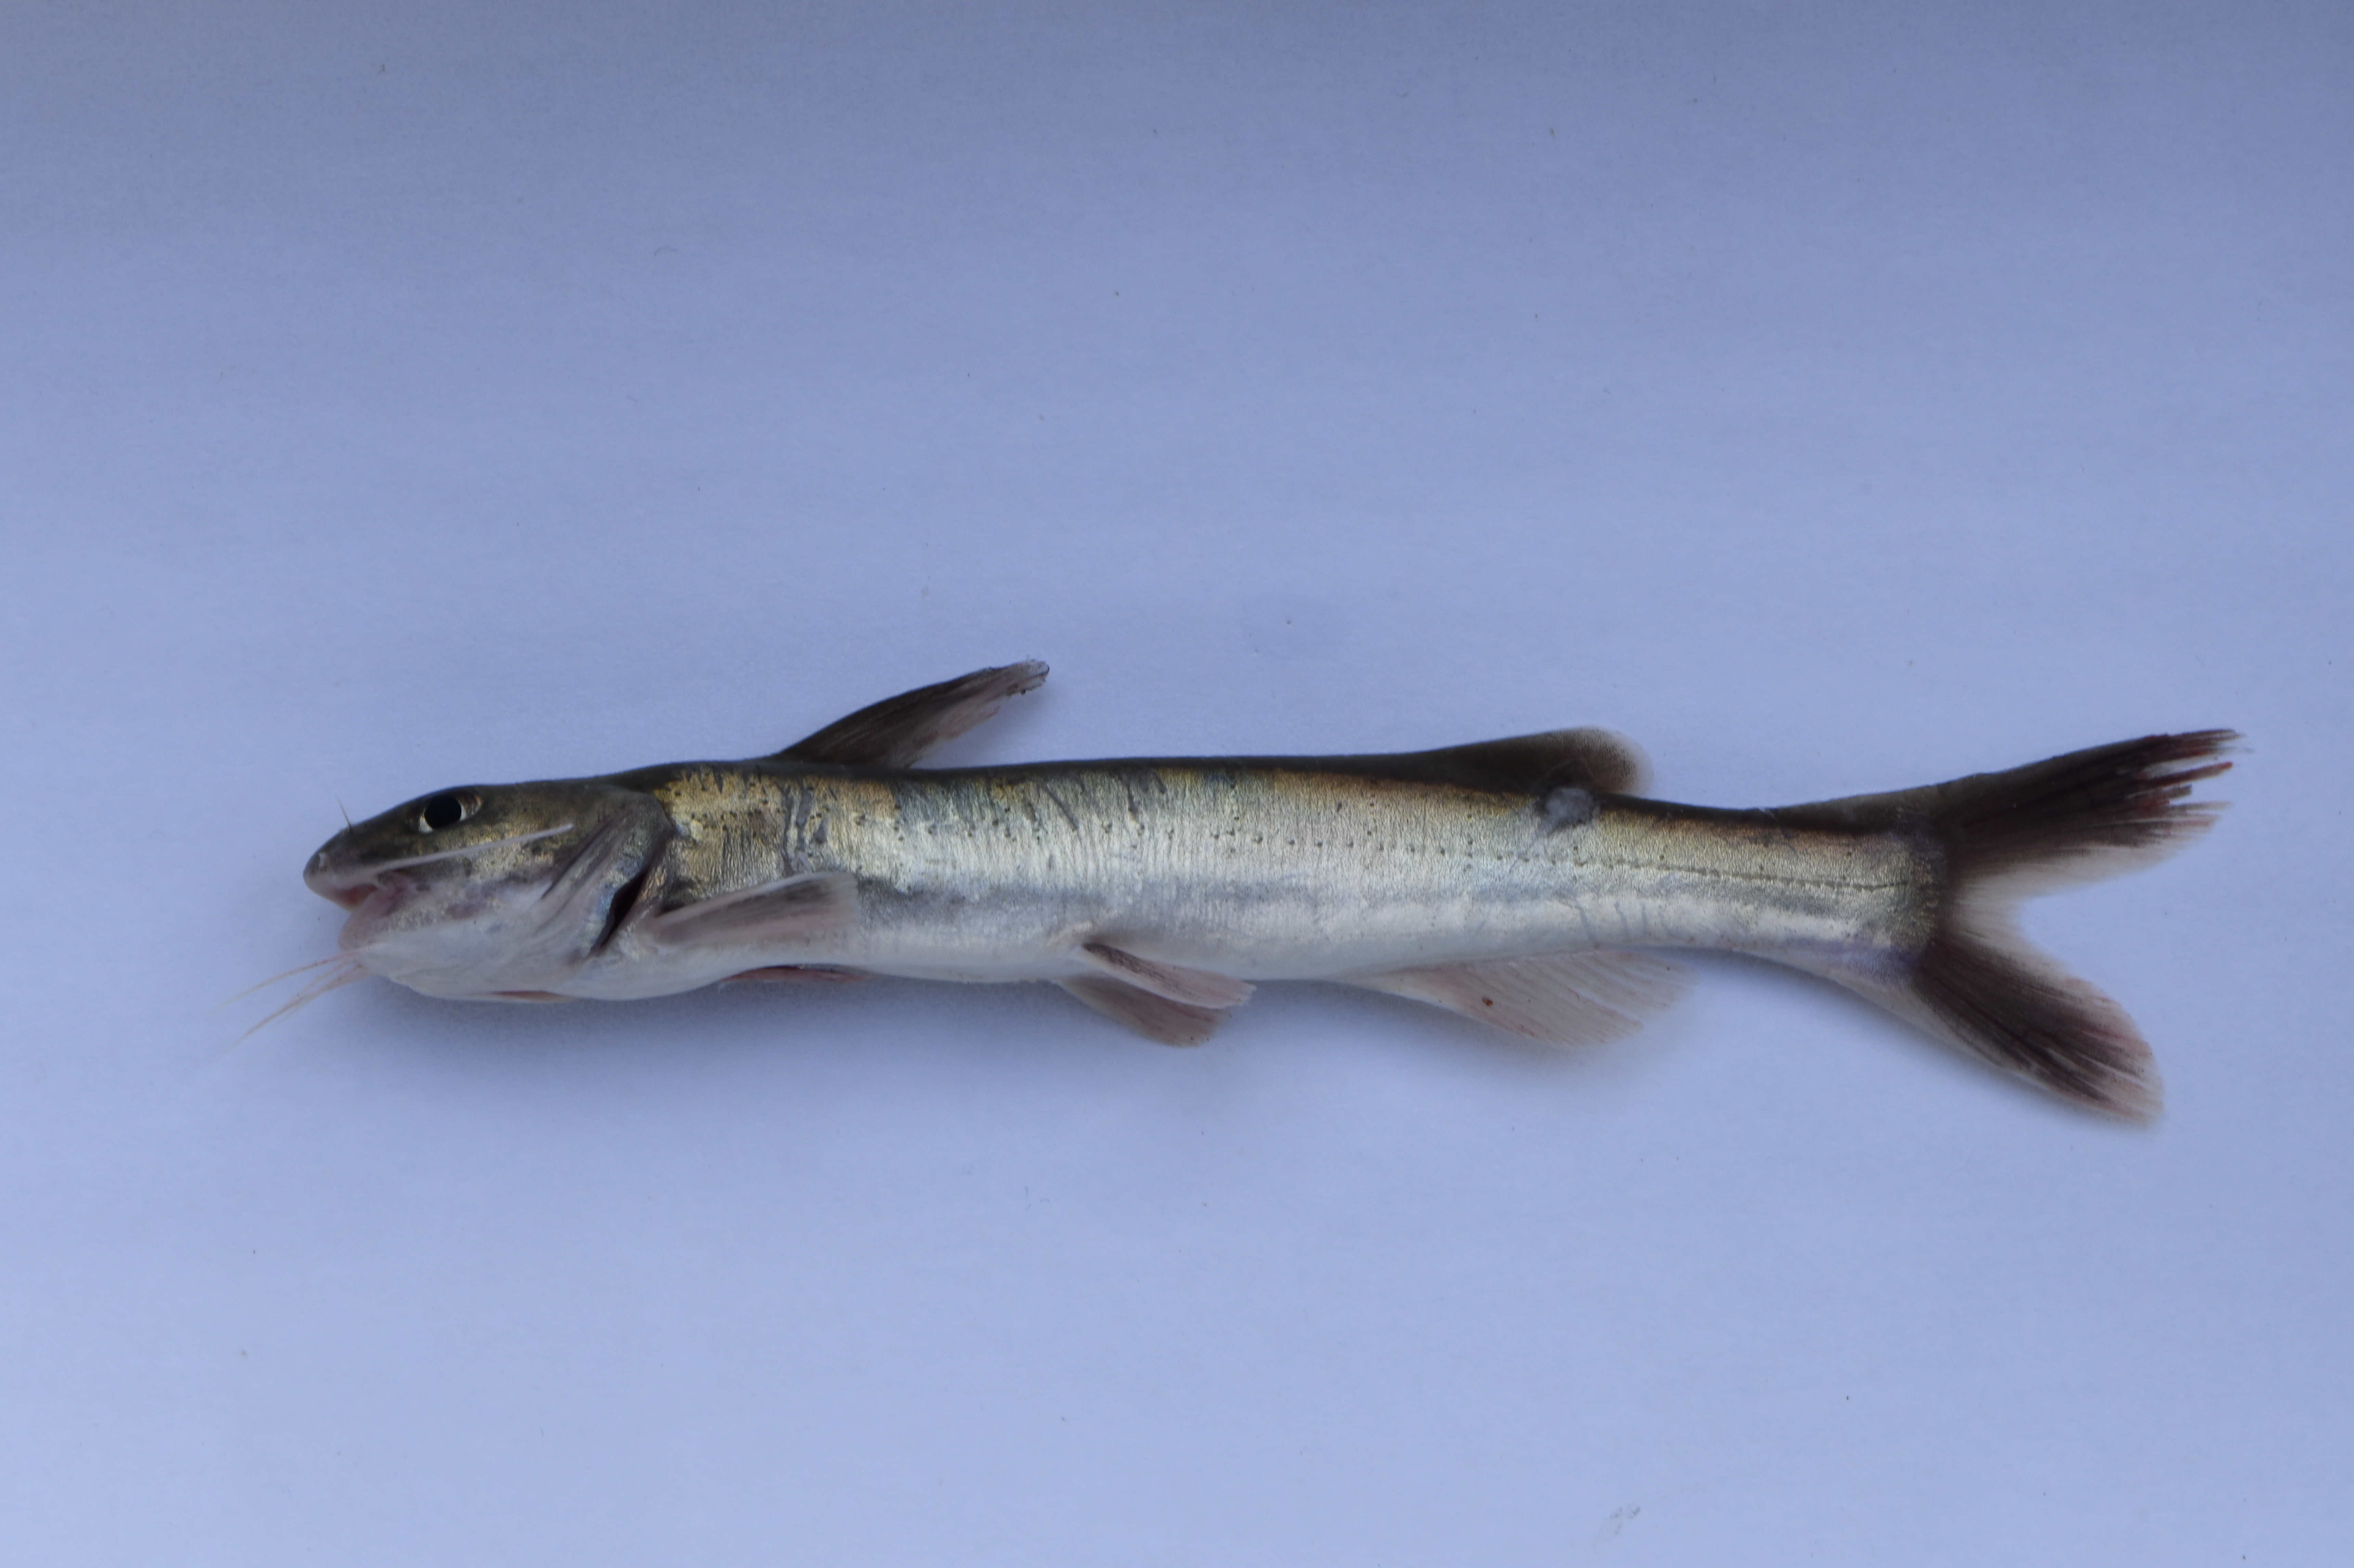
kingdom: Animalia
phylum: Chordata
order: Siluriformes
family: Claroteidae
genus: Bathybagrus
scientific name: Bathybagrus sianenna
